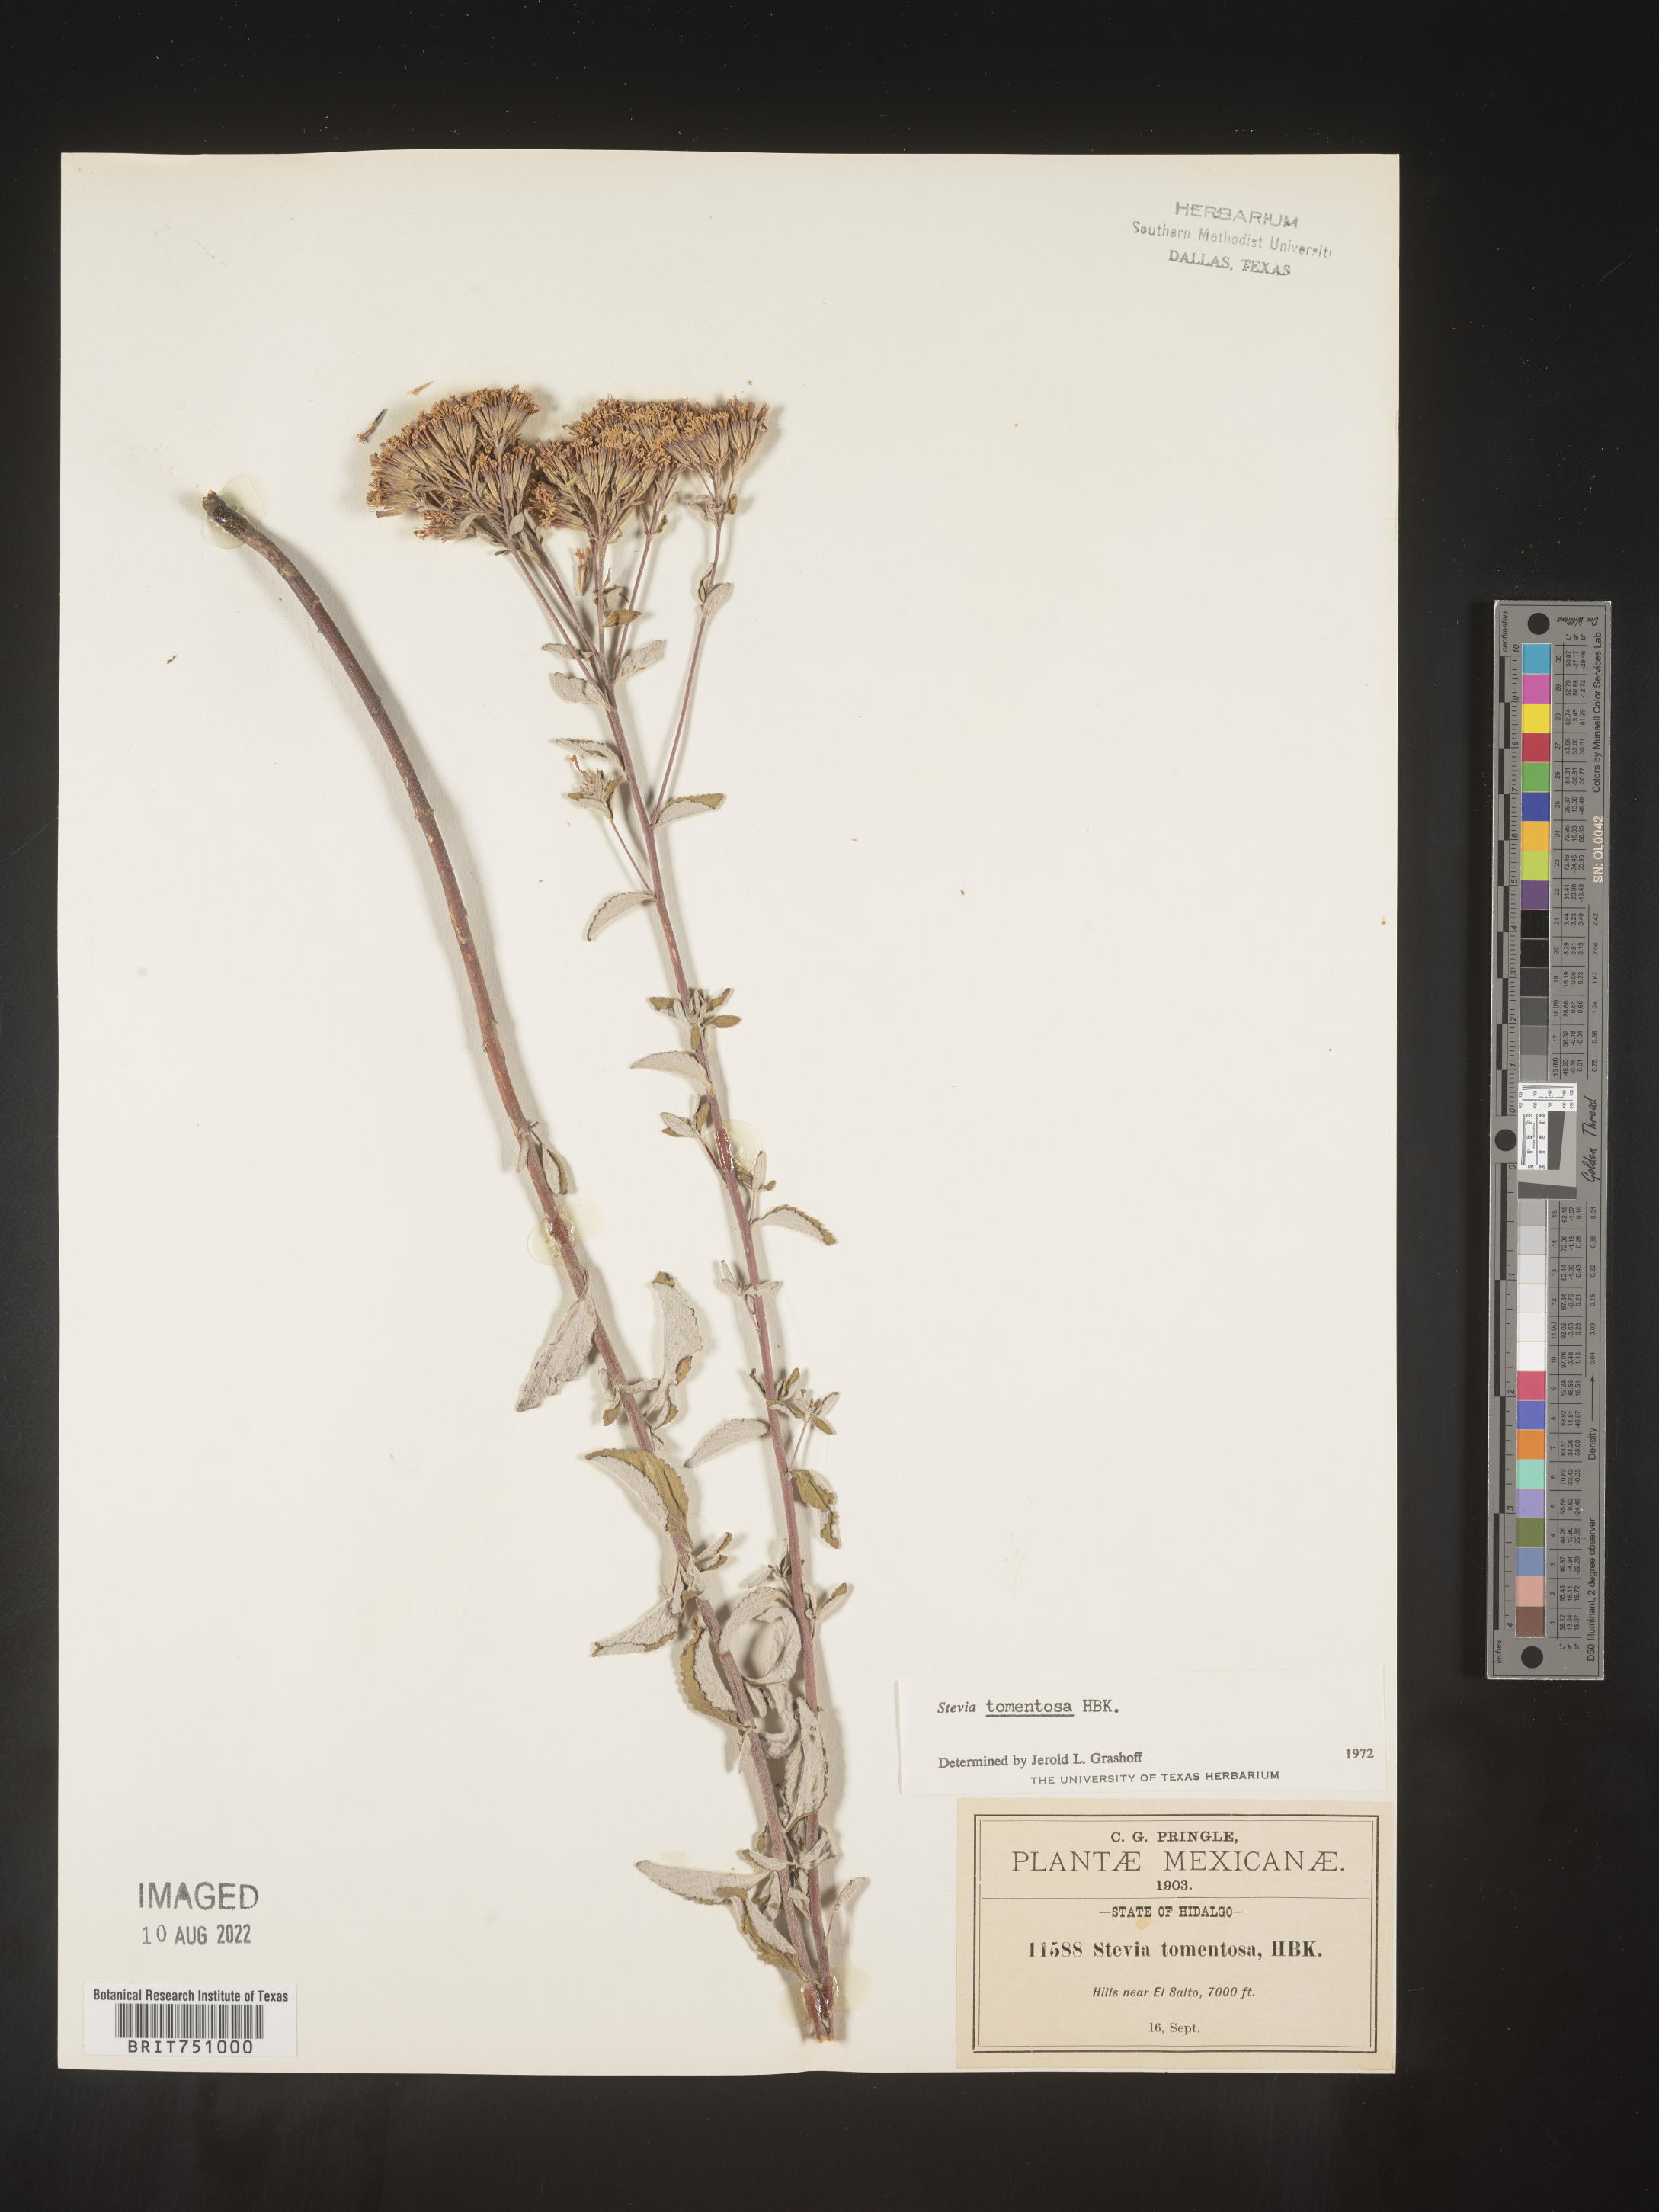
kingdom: Plantae
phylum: Tracheophyta
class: Magnoliopsida
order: Asterales
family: Asteraceae
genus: Stevia
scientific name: Stevia
